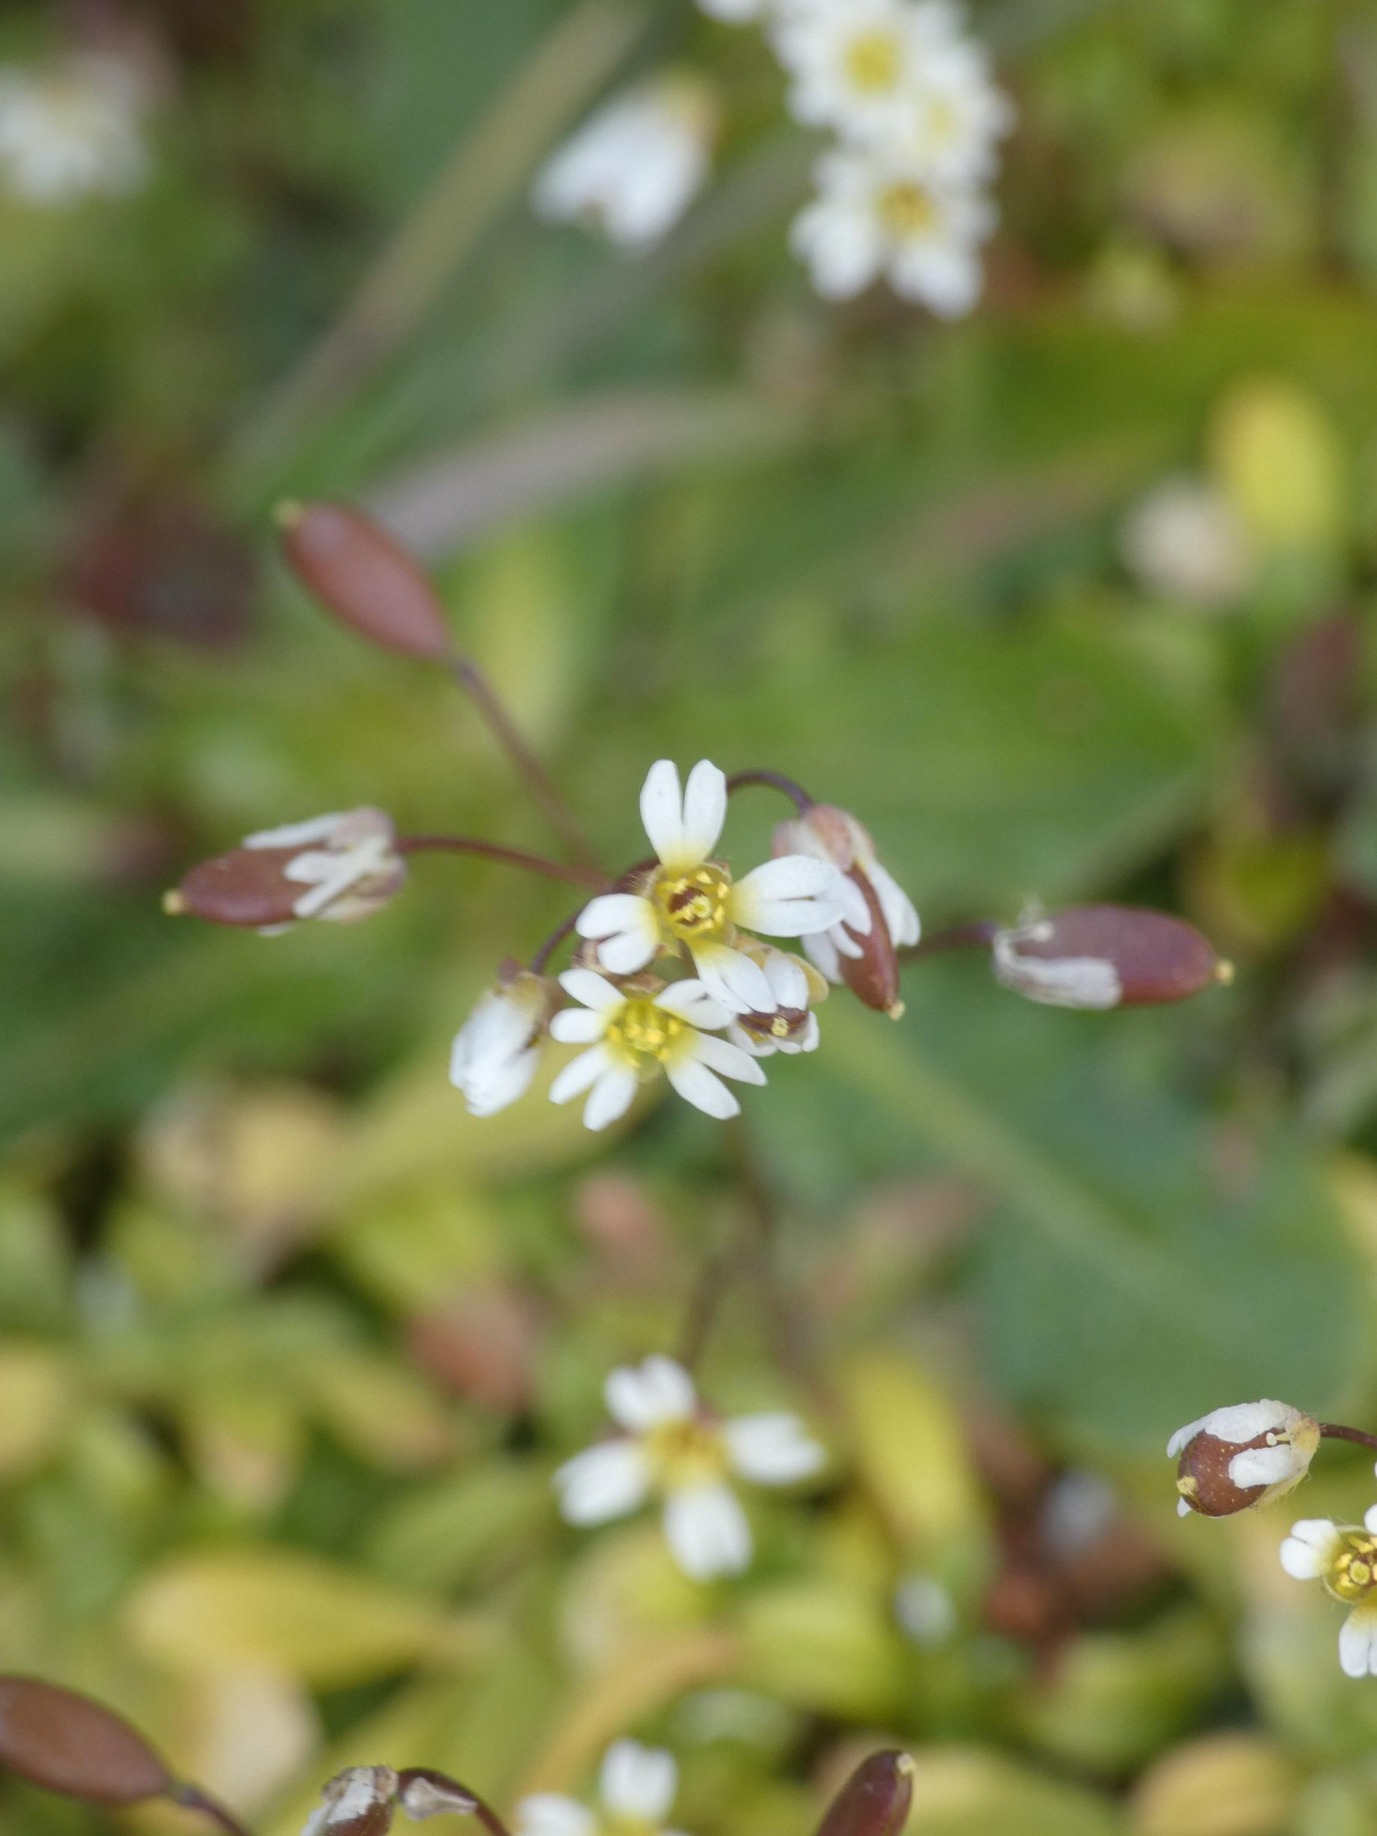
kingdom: Plantae
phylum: Tracheophyta
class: Magnoliopsida
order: Brassicales
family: Brassicaceae
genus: Draba
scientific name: Draba verna
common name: Vår-gæslingeblomst
